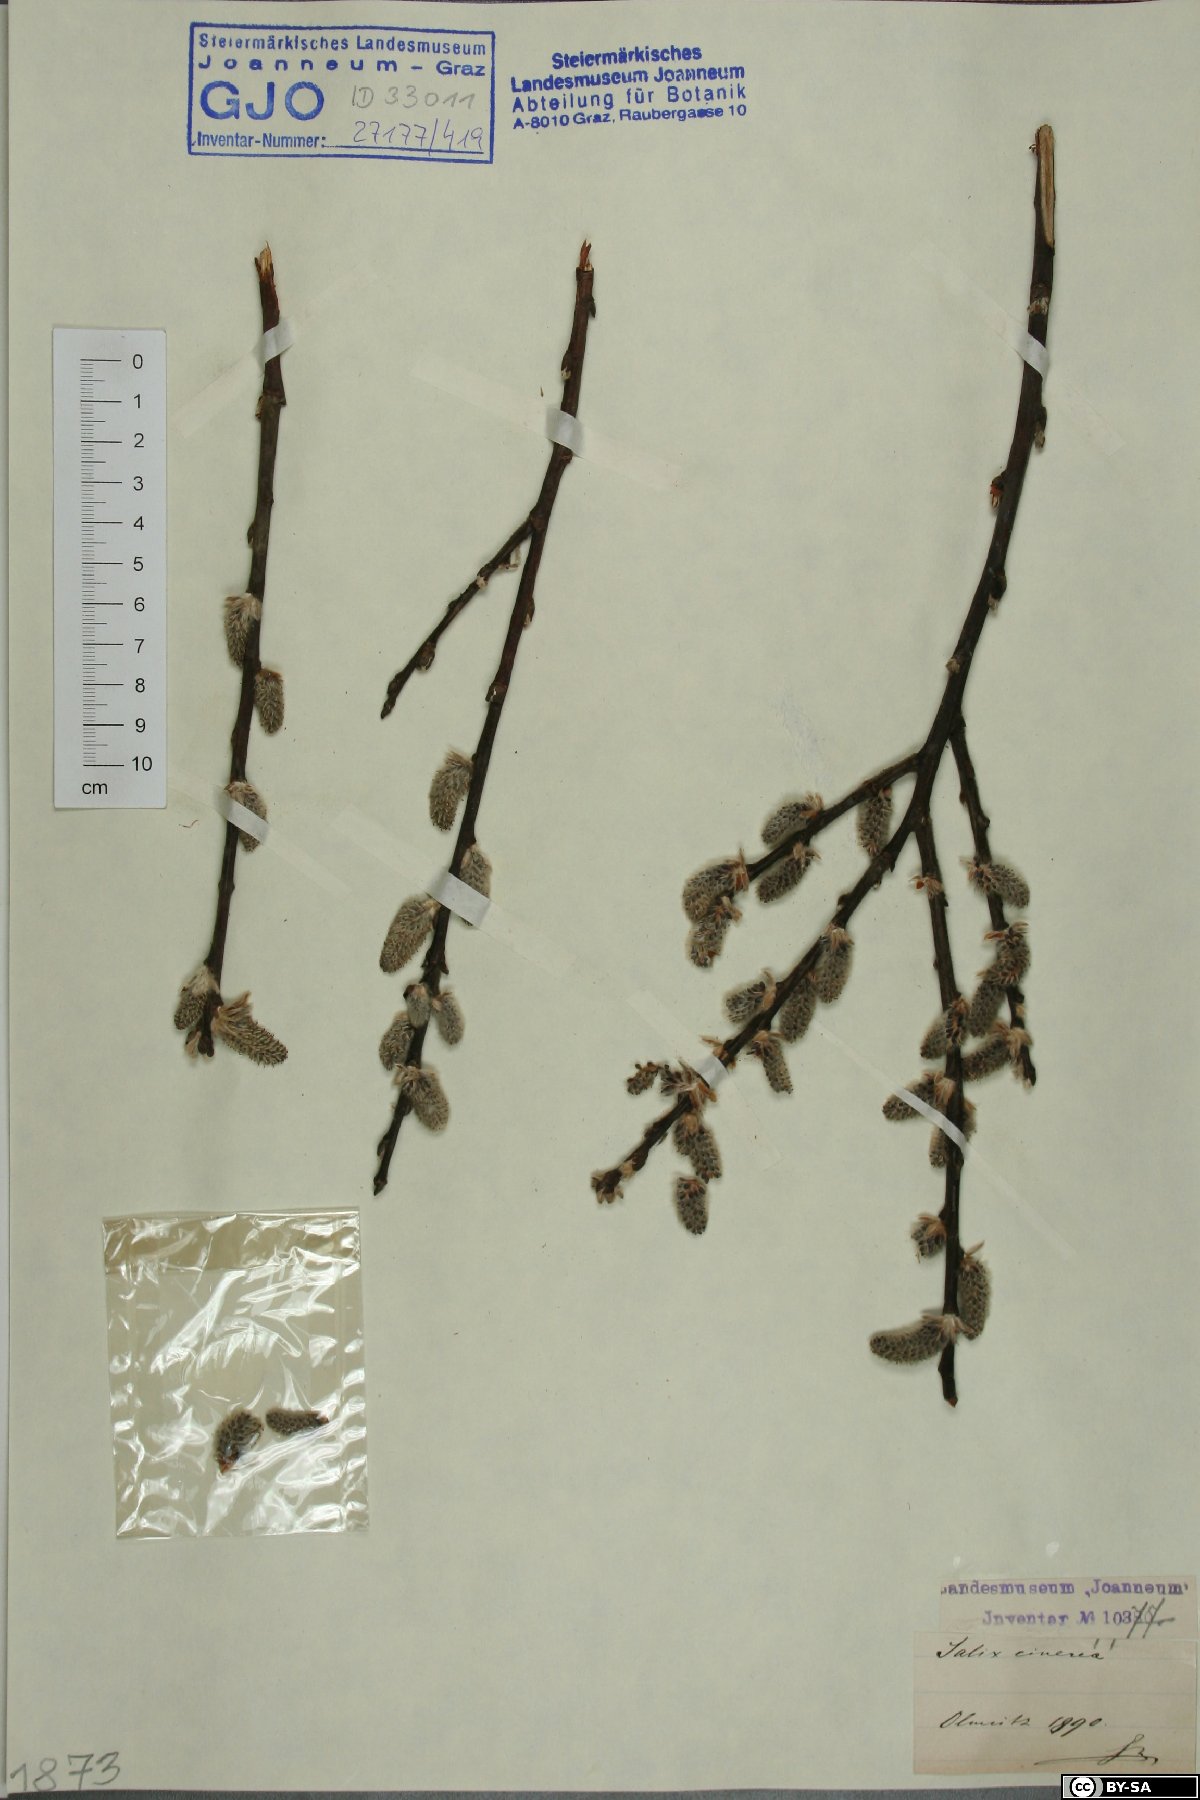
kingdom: Plantae
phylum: Tracheophyta
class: Magnoliopsida
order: Malpighiales
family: Salicaceae
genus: Salix
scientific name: Salix cinerea
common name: Common sallow
